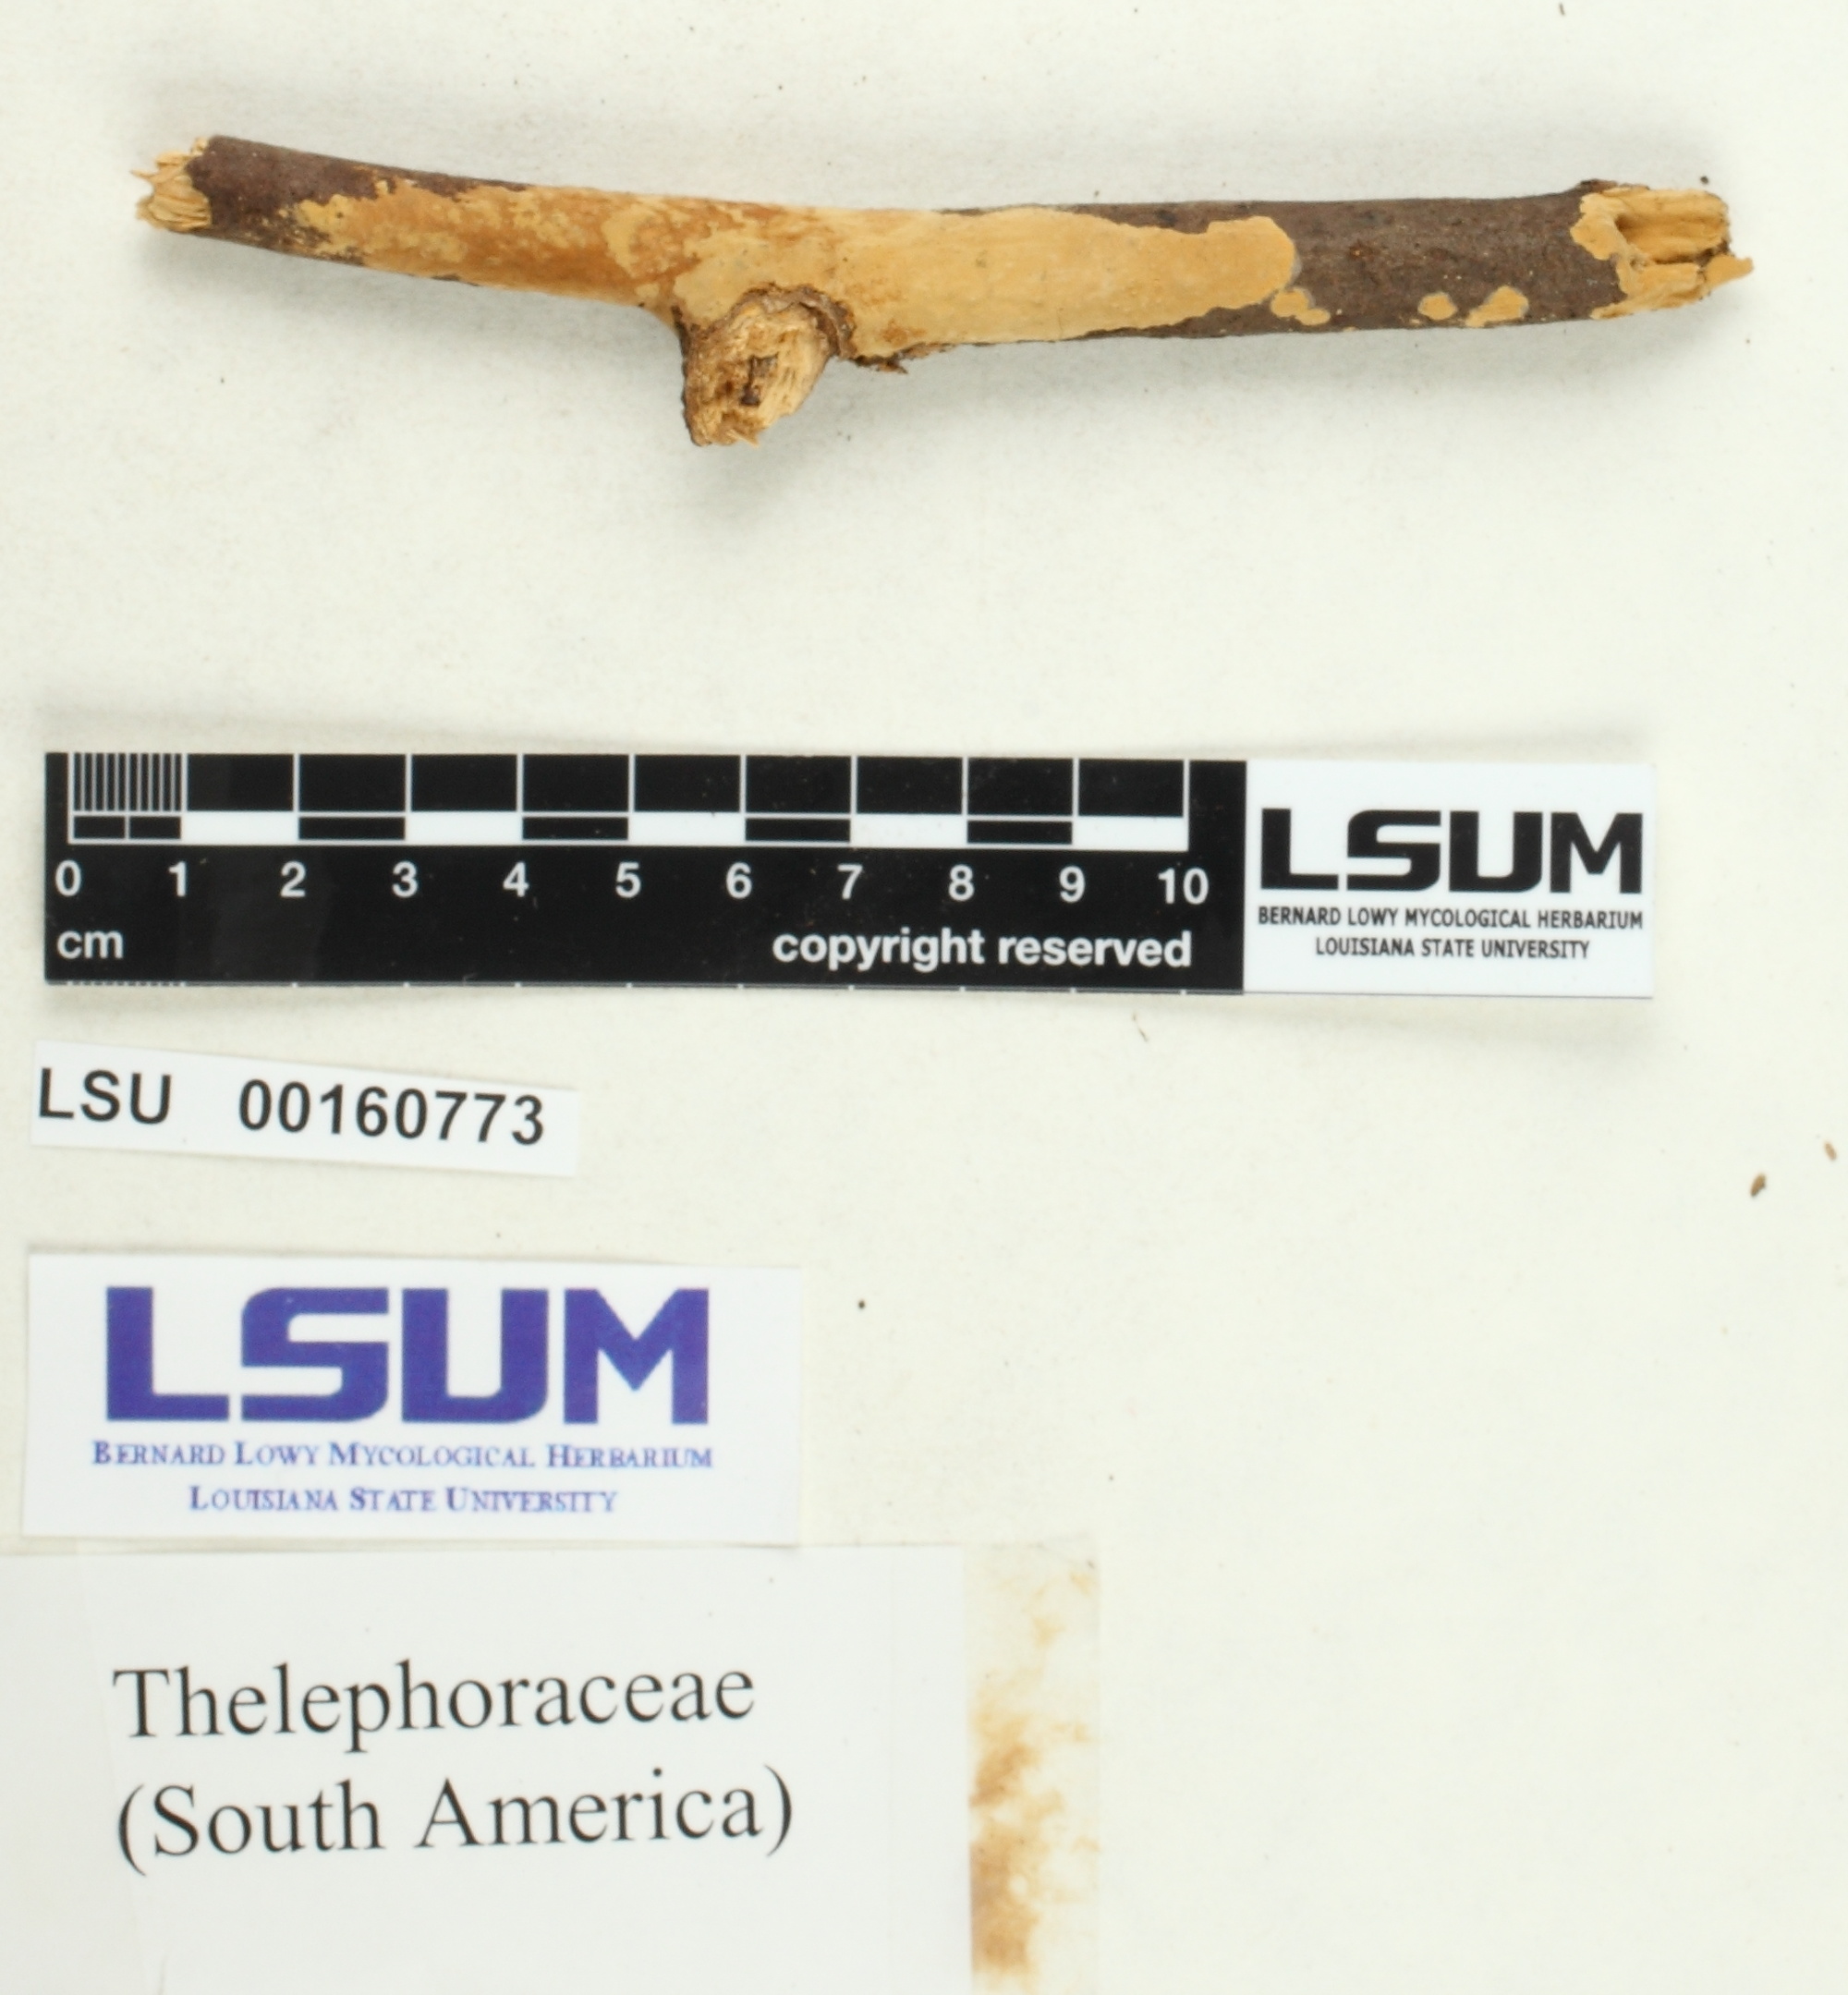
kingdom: Fungi
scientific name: Fungi
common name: Fungi
